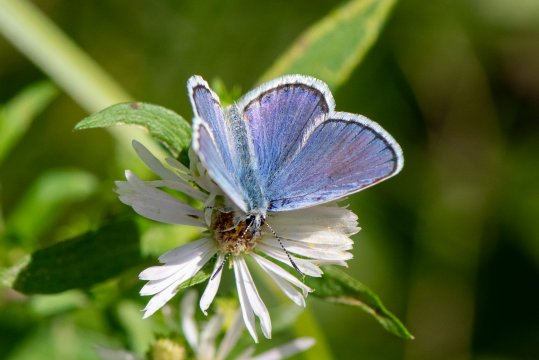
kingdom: Animalia
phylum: Arthropoda
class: Insecta
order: Lepidoptera
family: Lycaenidae
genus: Lycaeides
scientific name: Lycaeides melissa
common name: Melissa Blue
